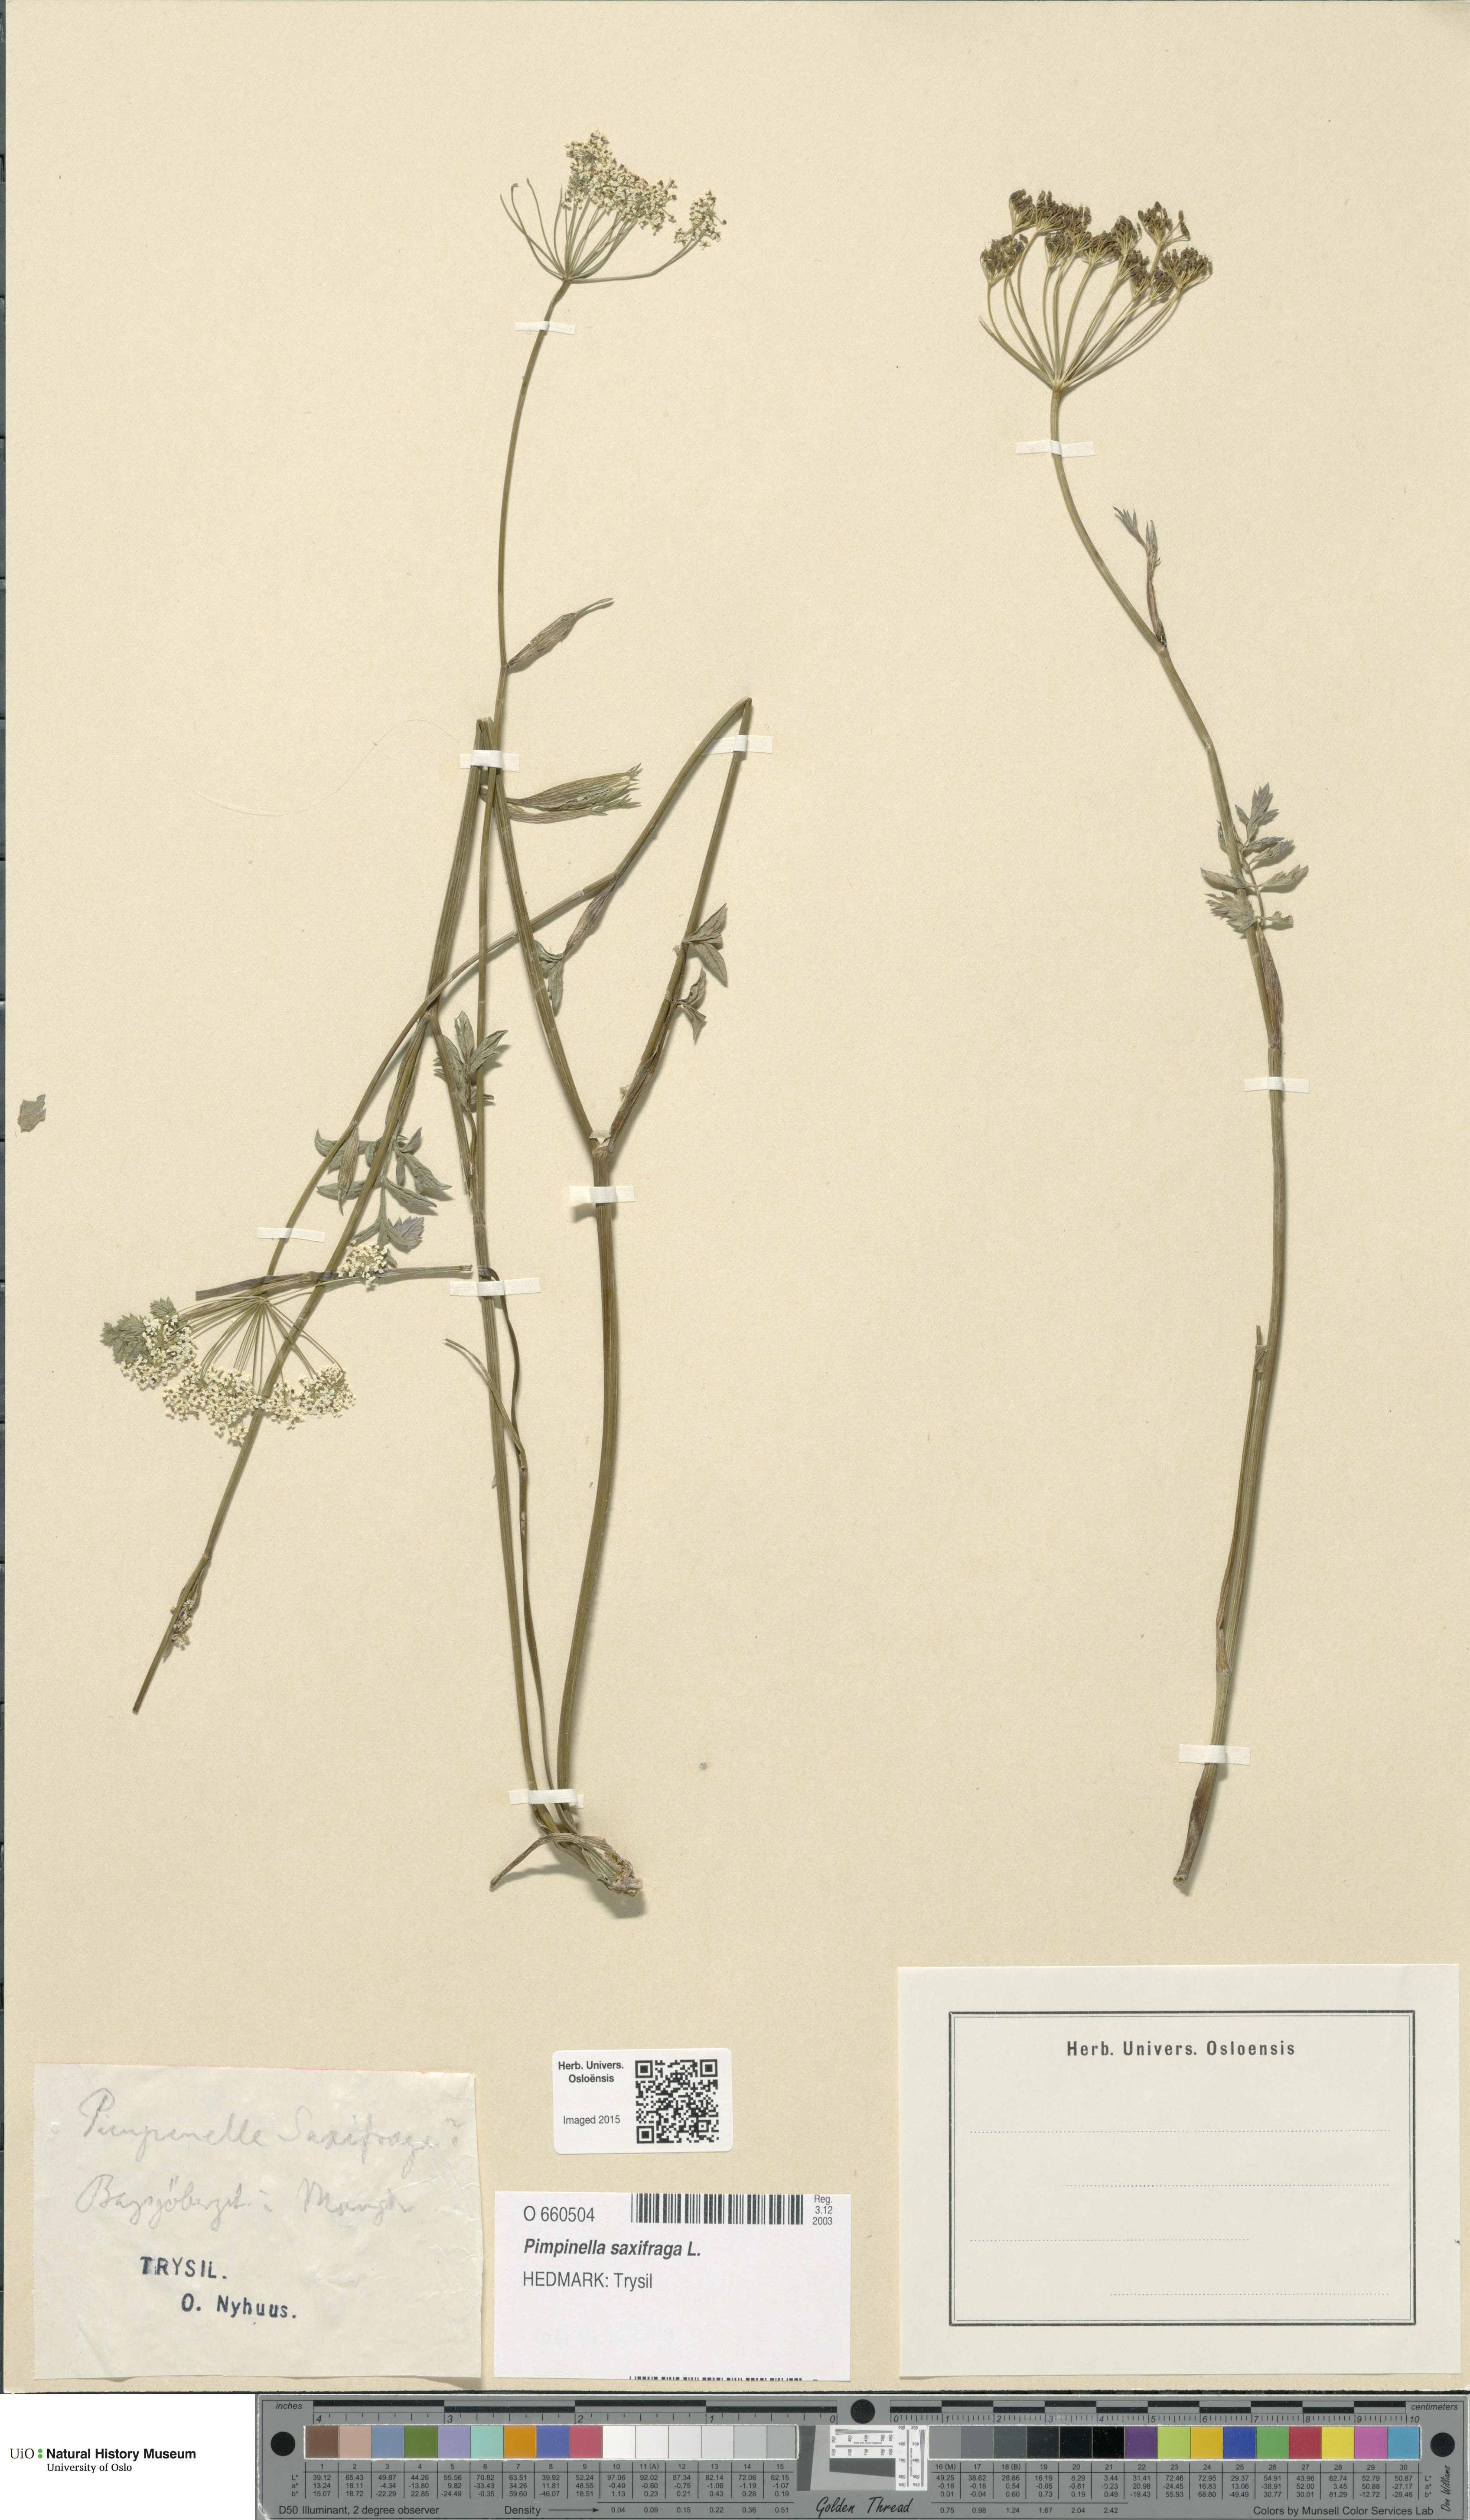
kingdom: Plantae
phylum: Tracheophyta
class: Magnoliopsida
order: Apiales
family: Apiaceae
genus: Pimpinella
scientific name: Pimpinella saxifraga
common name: Burnet-saxifrage
